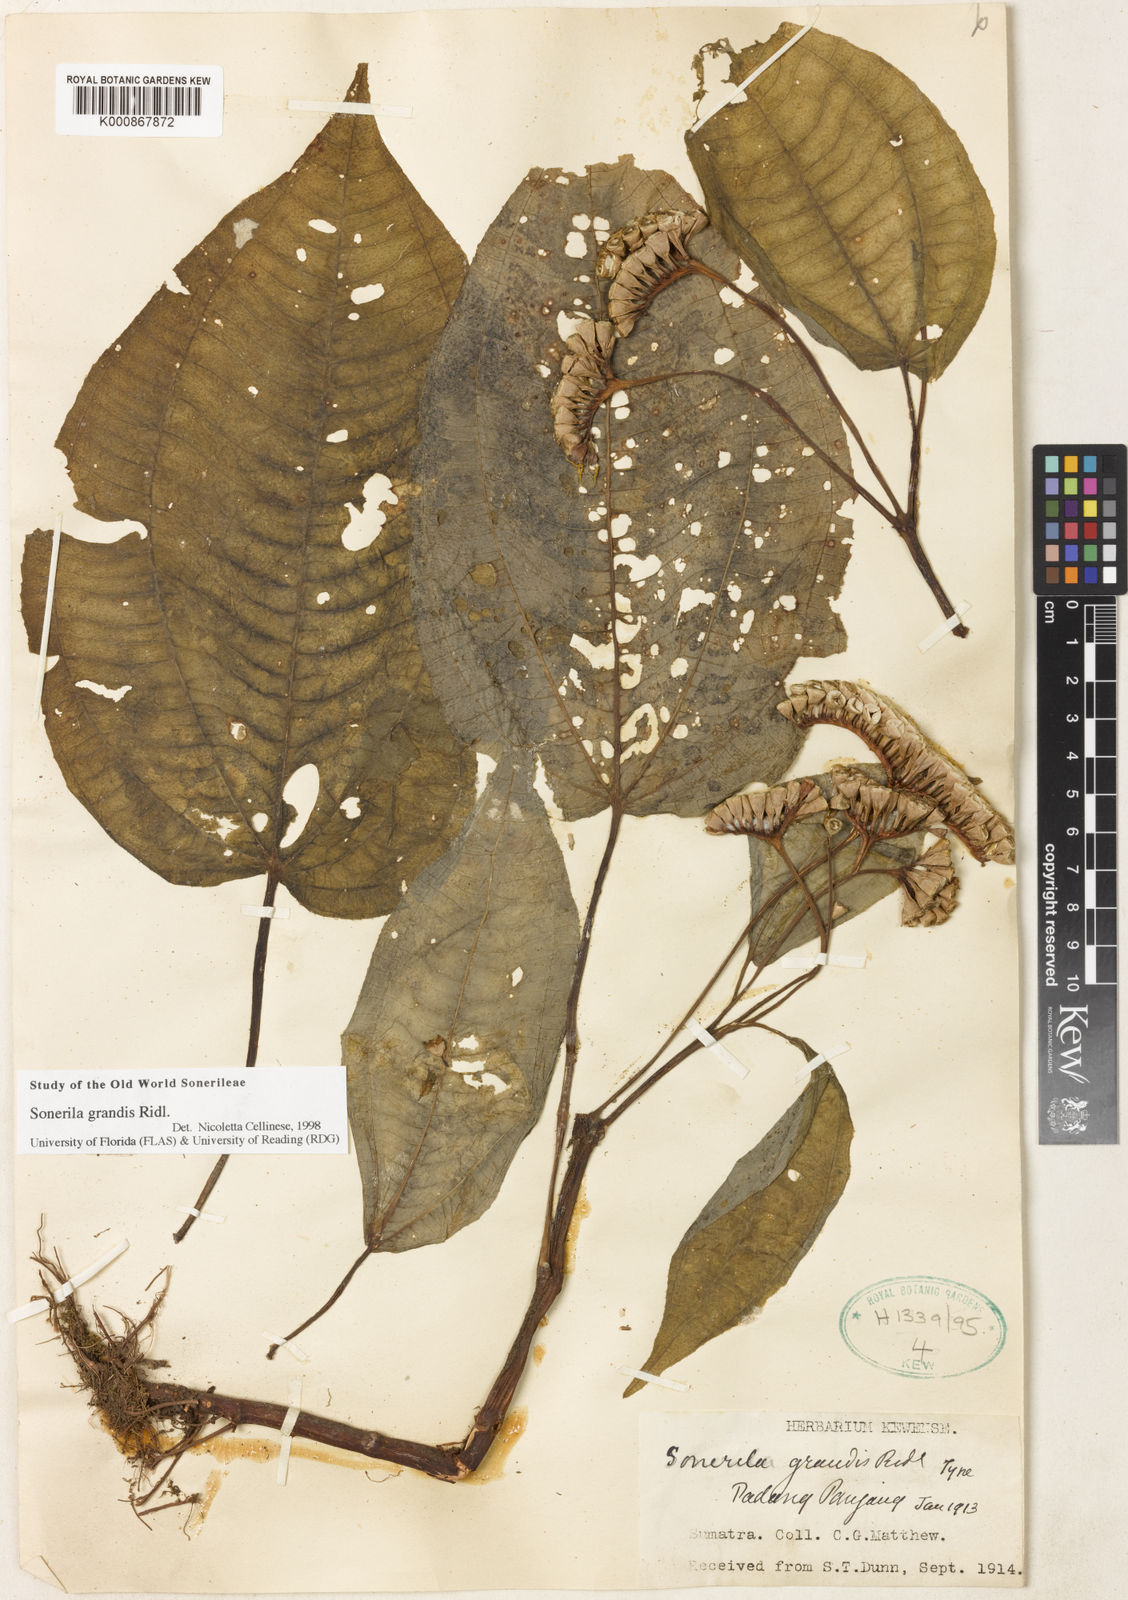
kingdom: Plantae
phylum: Tracheophyta
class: Magnoliopsida
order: Myrtales
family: Melastomataceae
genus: Sonerila
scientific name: Sonerila grandis
